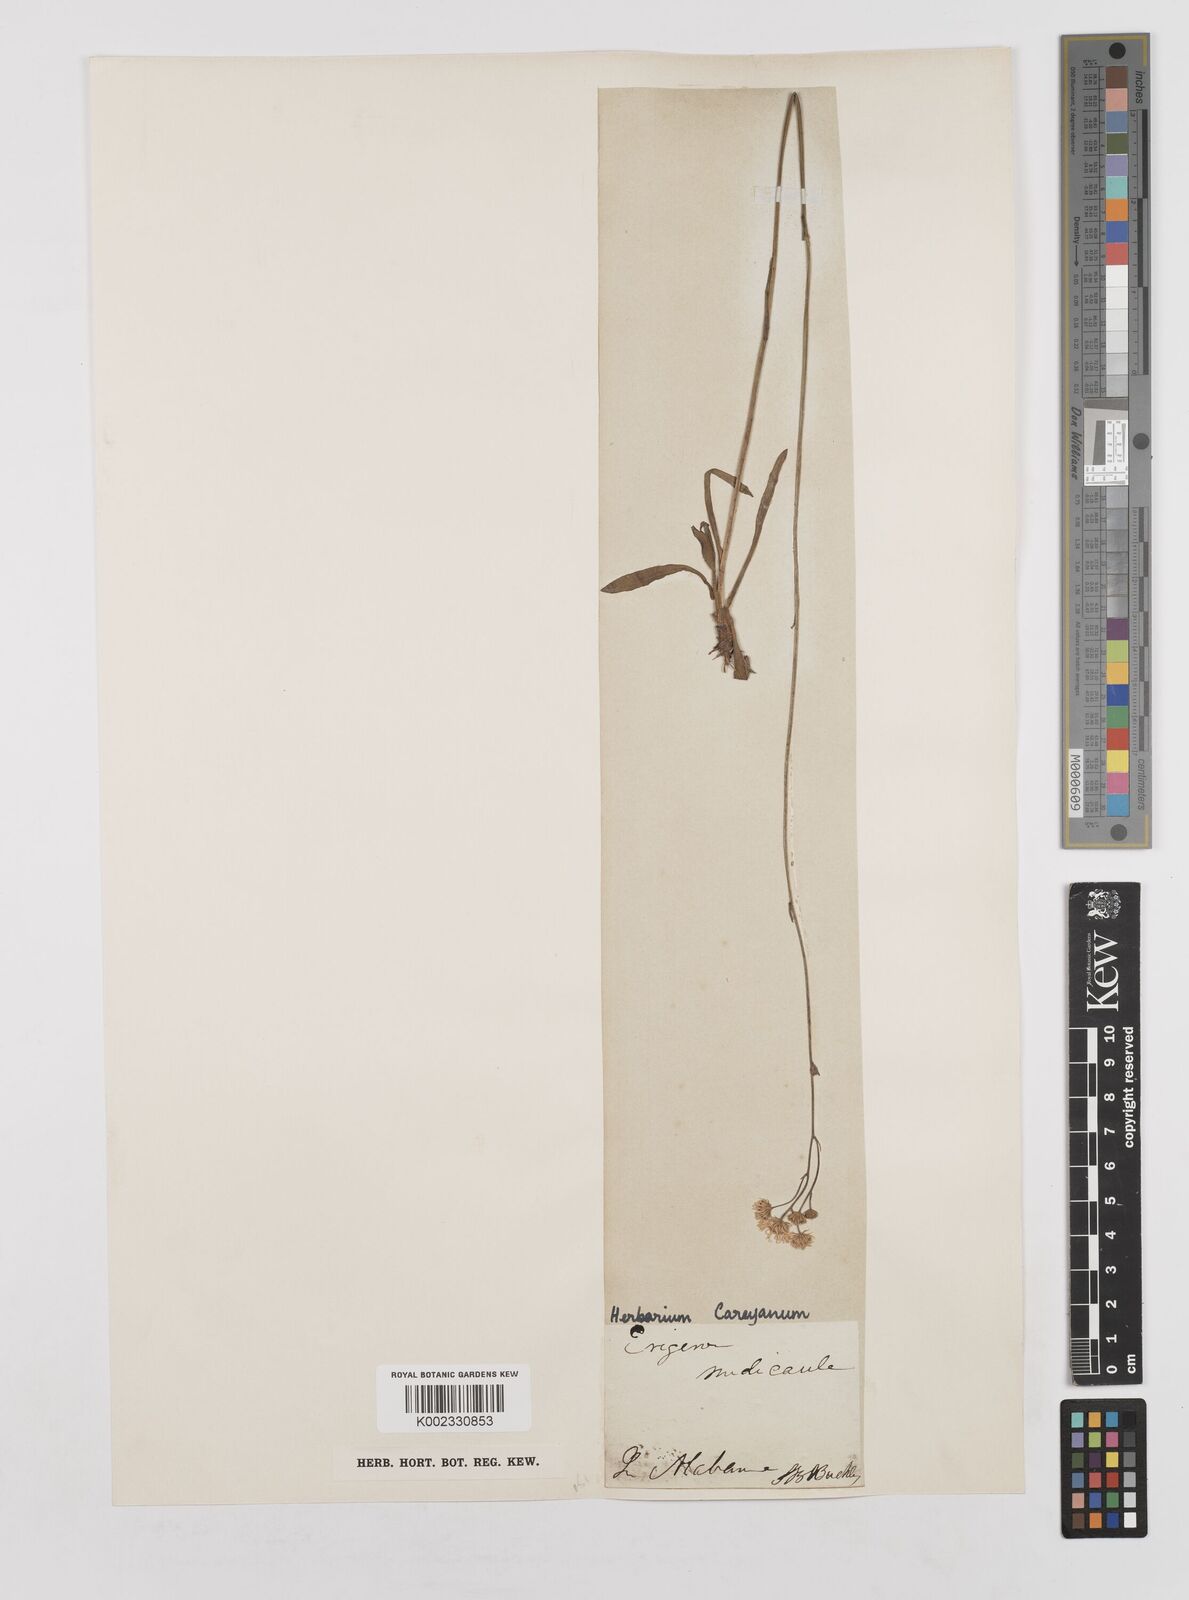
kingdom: Plantae
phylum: Tracheophyta
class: Magnoliopsida
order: Asterales
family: Asteraceae
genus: Erigeron
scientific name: Erigeron vernus
